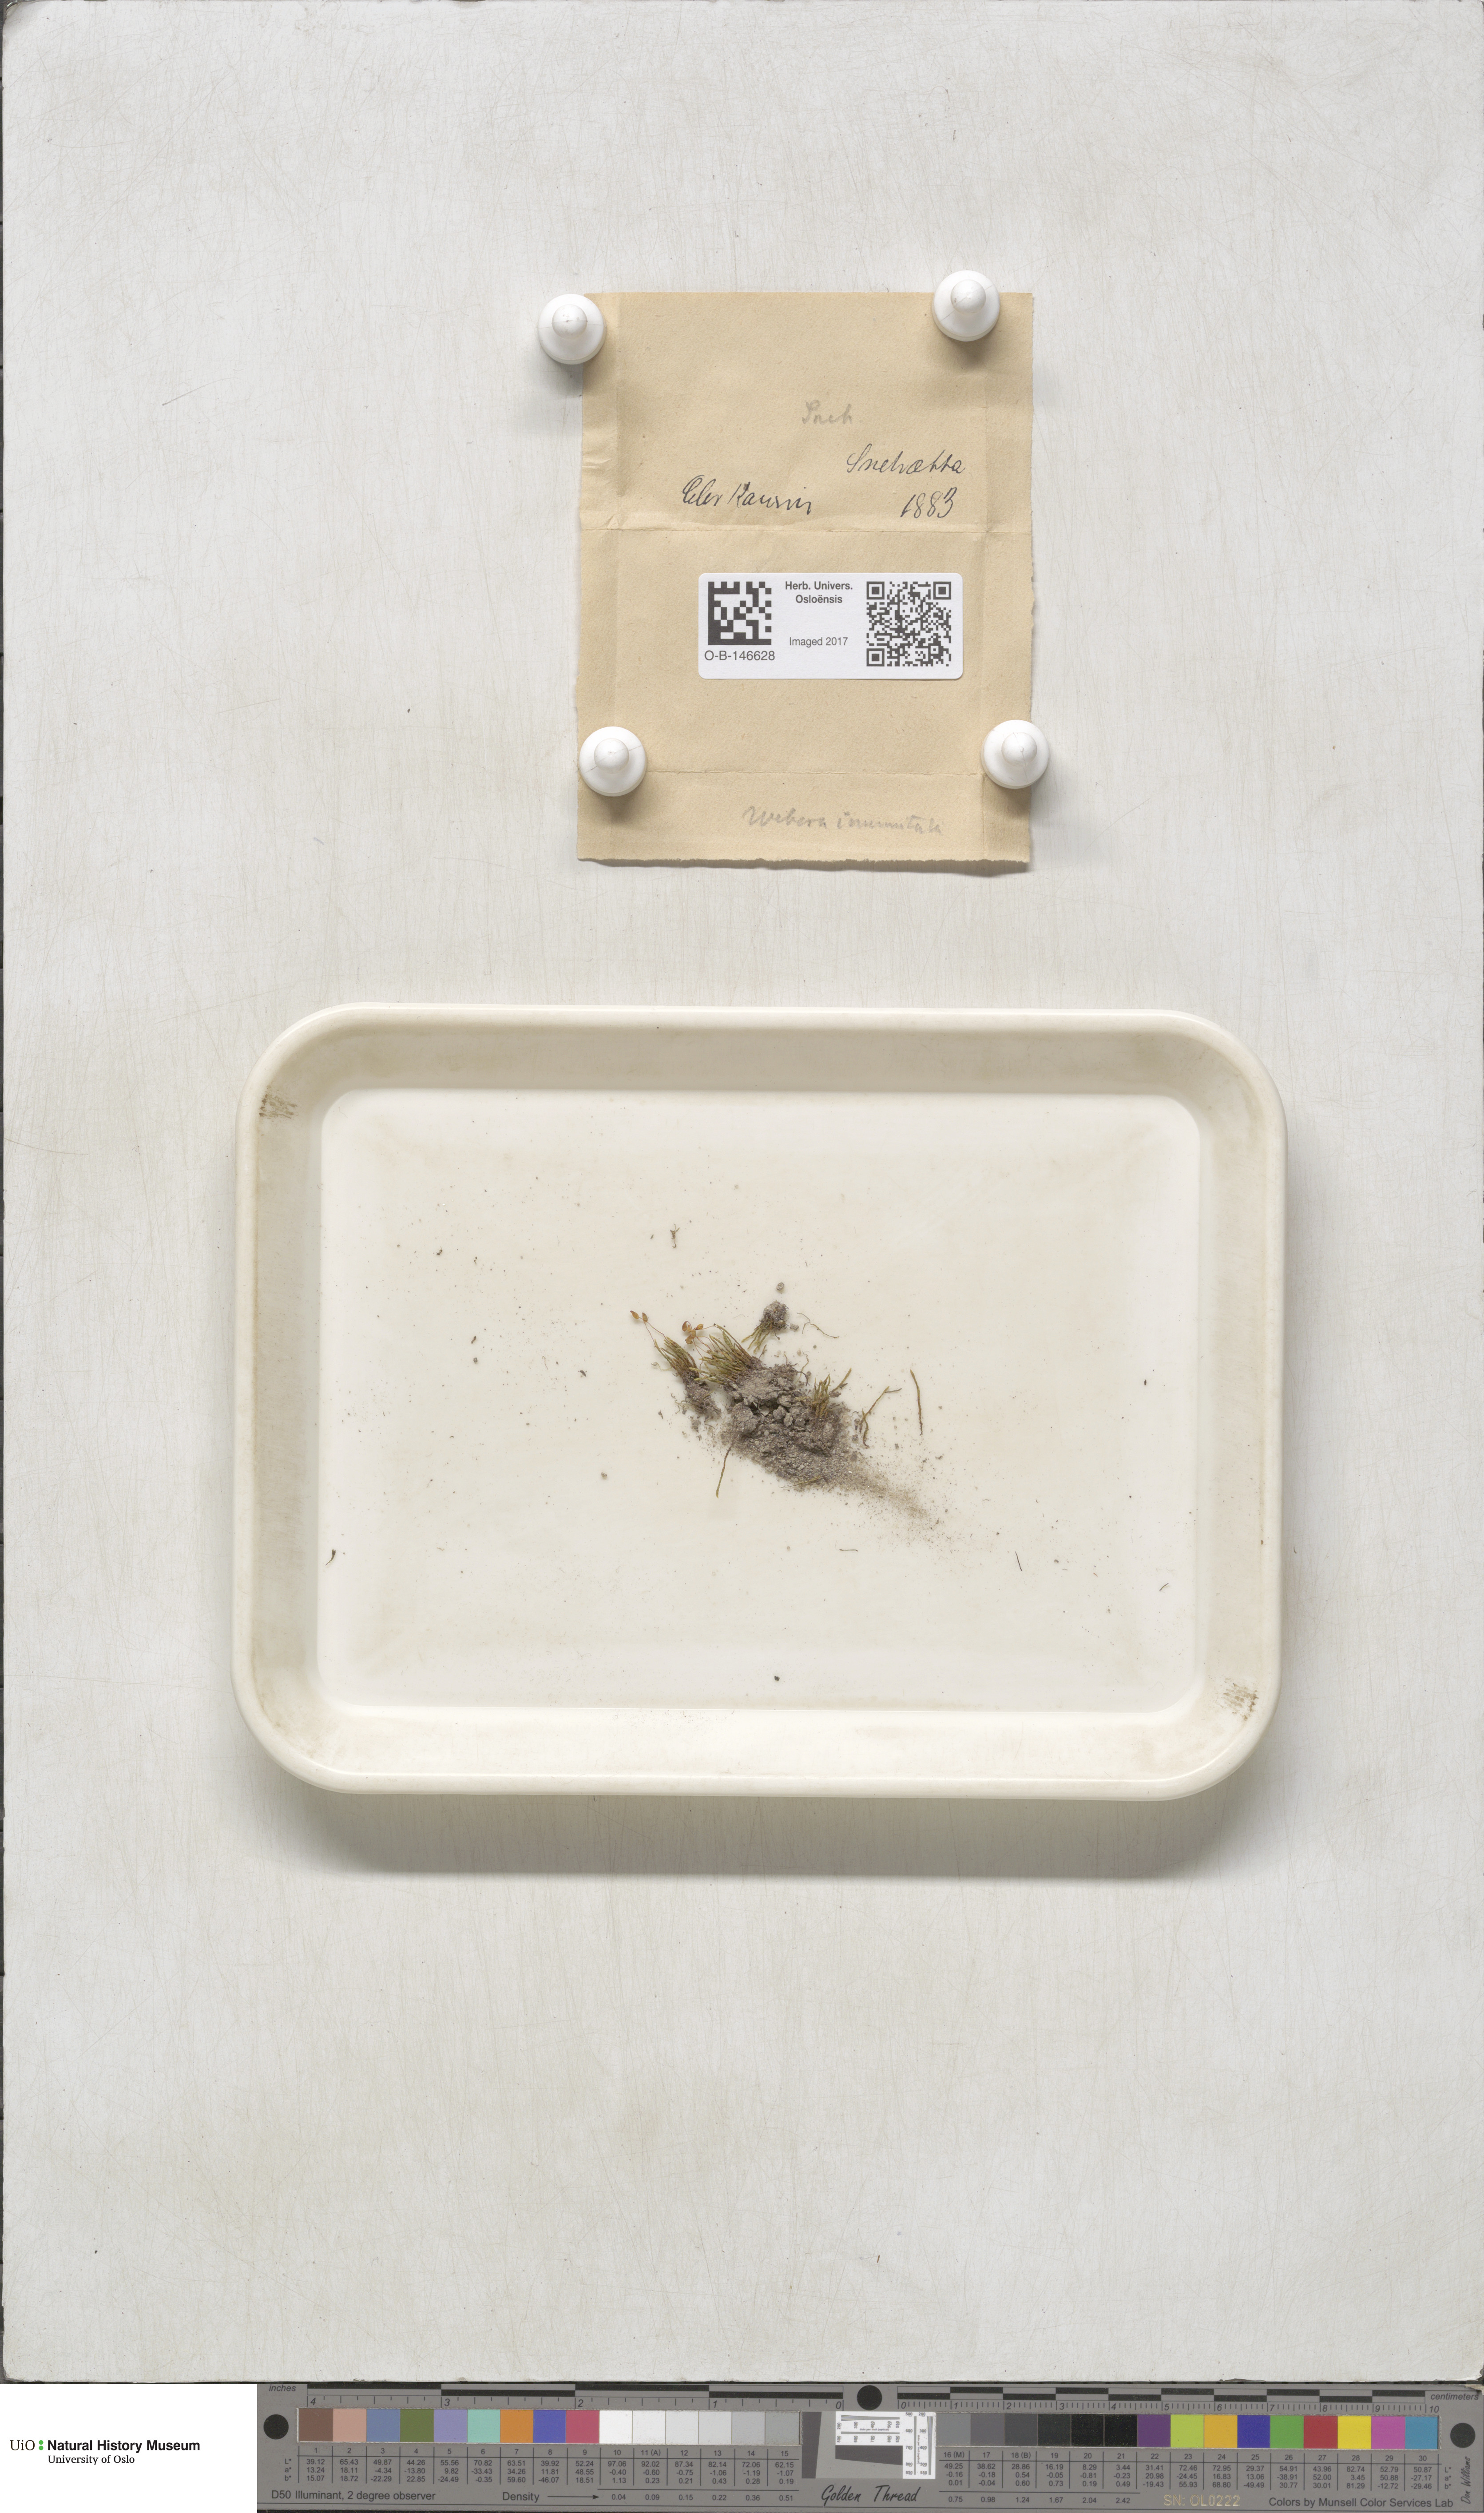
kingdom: Plantae
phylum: Bryophyta
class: Bryopsida
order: Bryales
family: Mniaceae
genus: Pohlia
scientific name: Pohlia obtusifolia
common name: Blunt nodding moss
